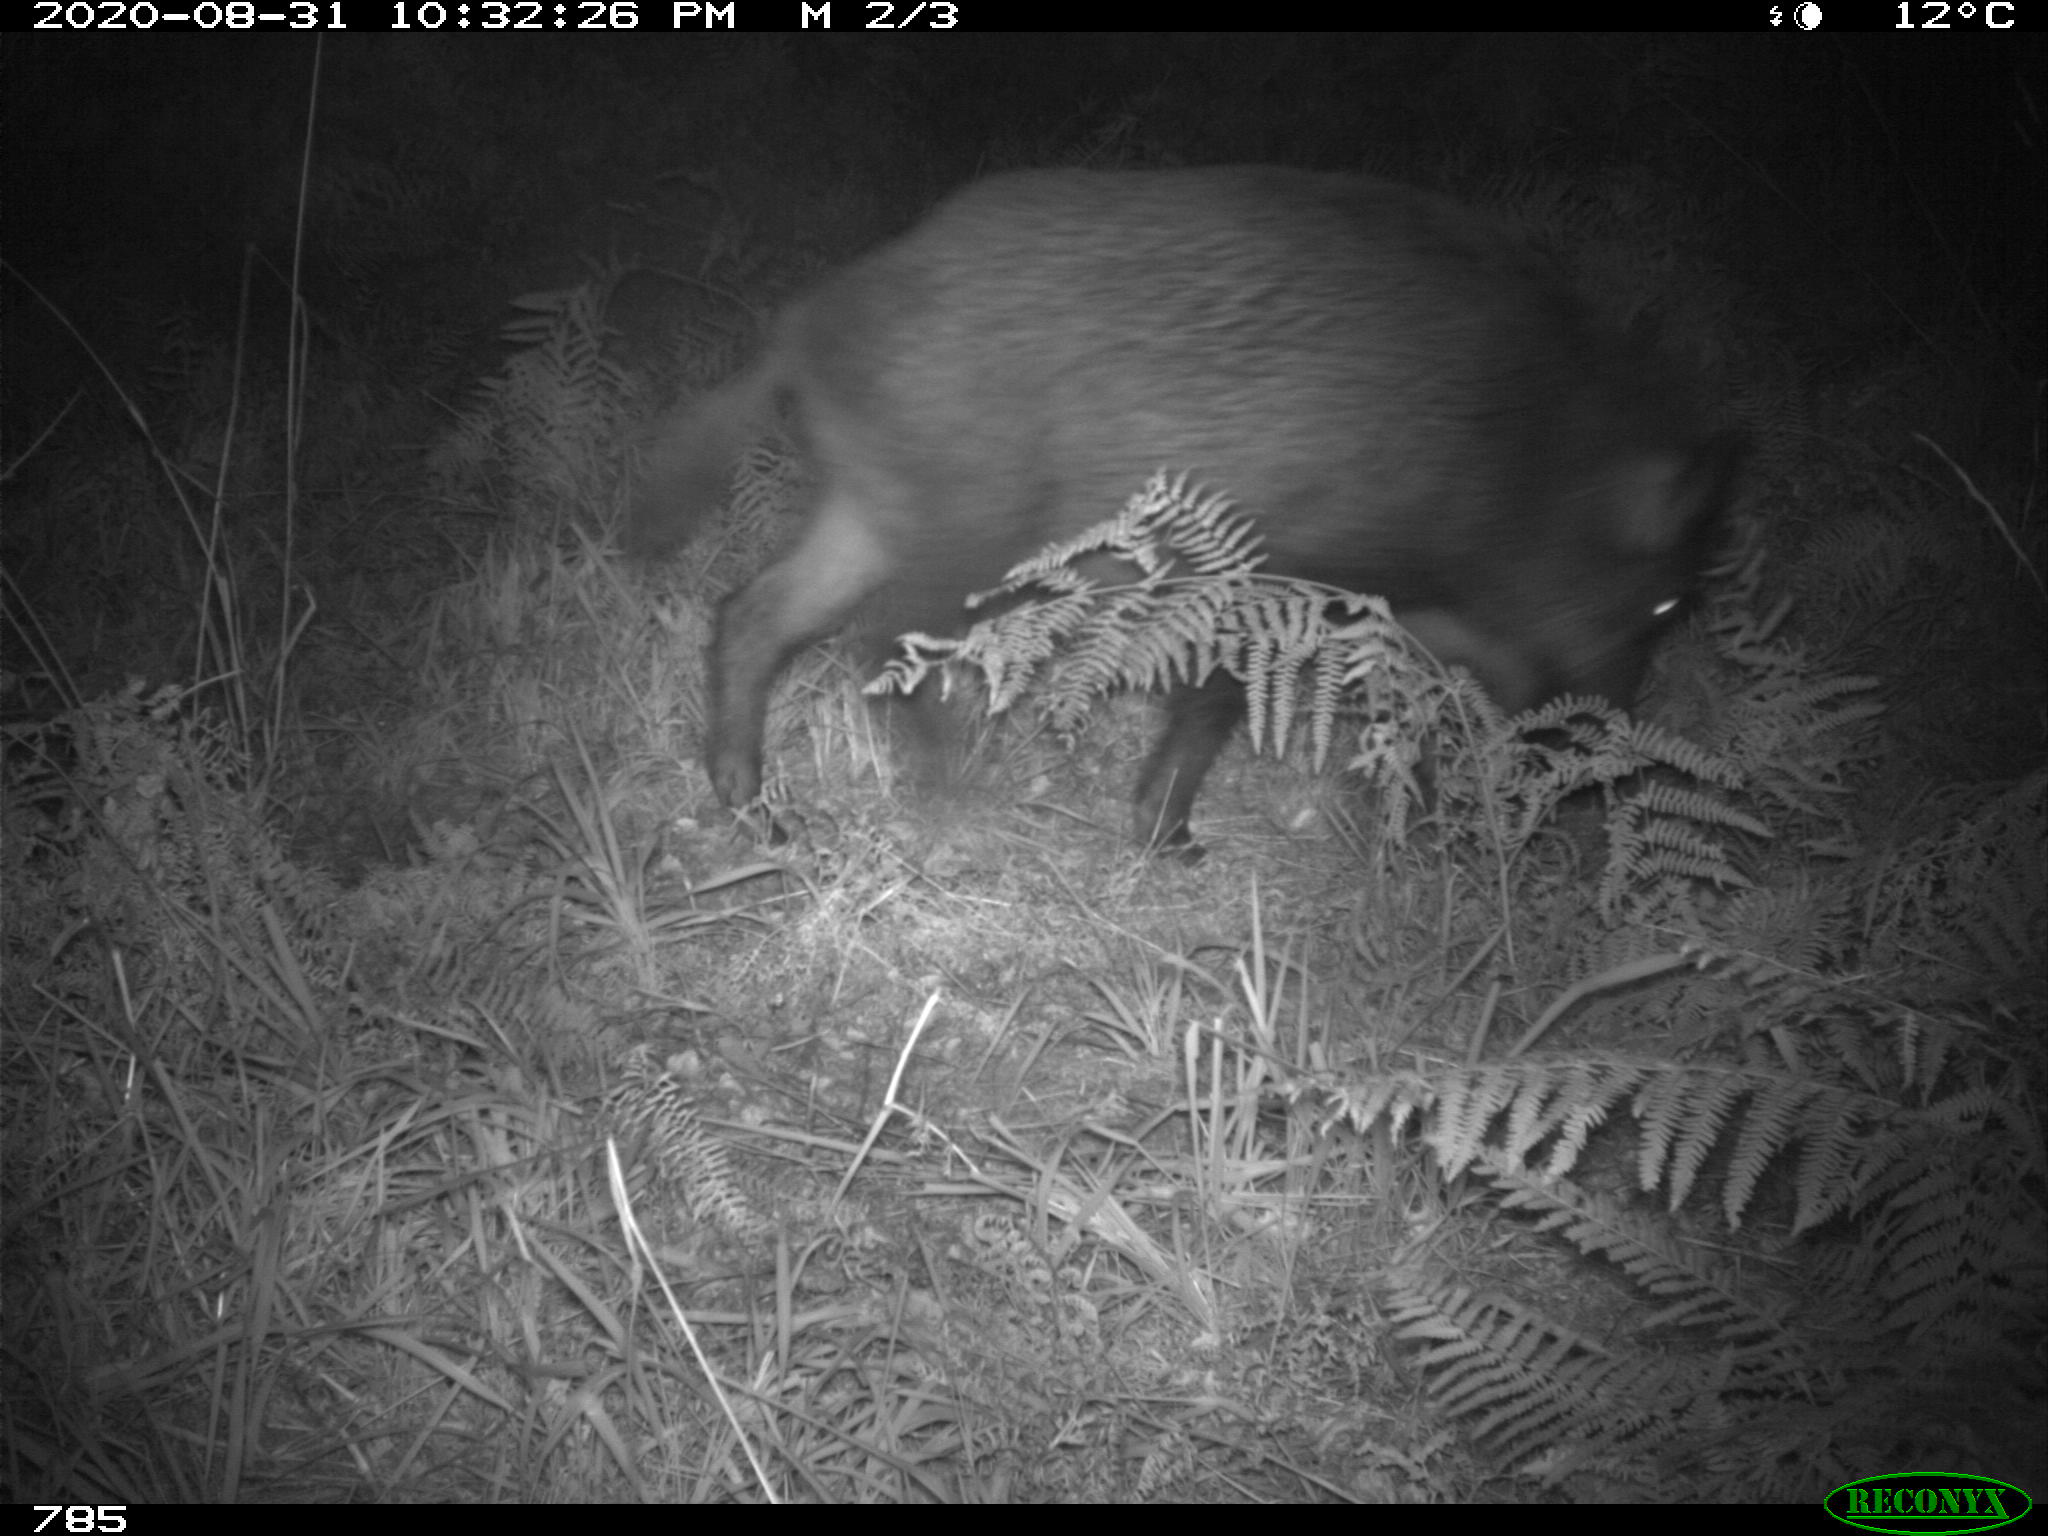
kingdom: Animalia
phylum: Chordata
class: Mammalia
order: Artiodactyla
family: Suidae
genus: Sus
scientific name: Sus scrofa
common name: Wild boar
